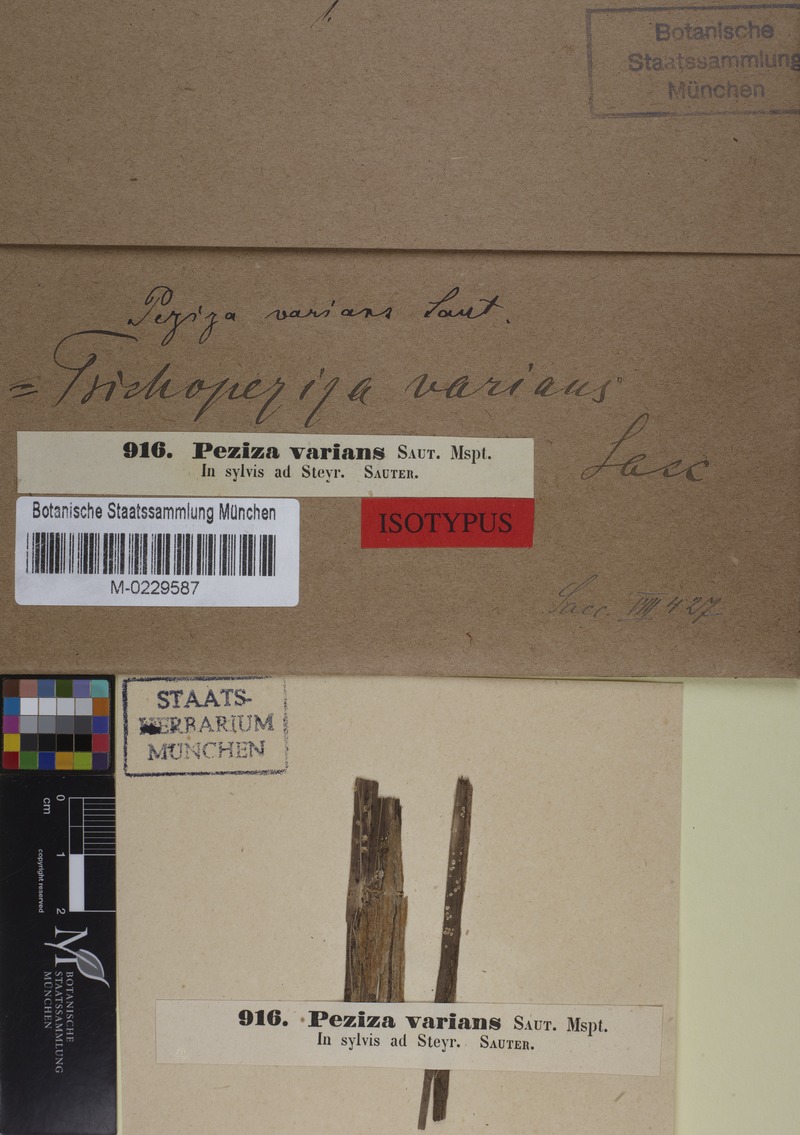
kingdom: Fungi
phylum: Ascomycota
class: Leotiomycetes
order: Helotiales
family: Lachnaceae
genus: Trichopeziza
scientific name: Trichopeziza varians
